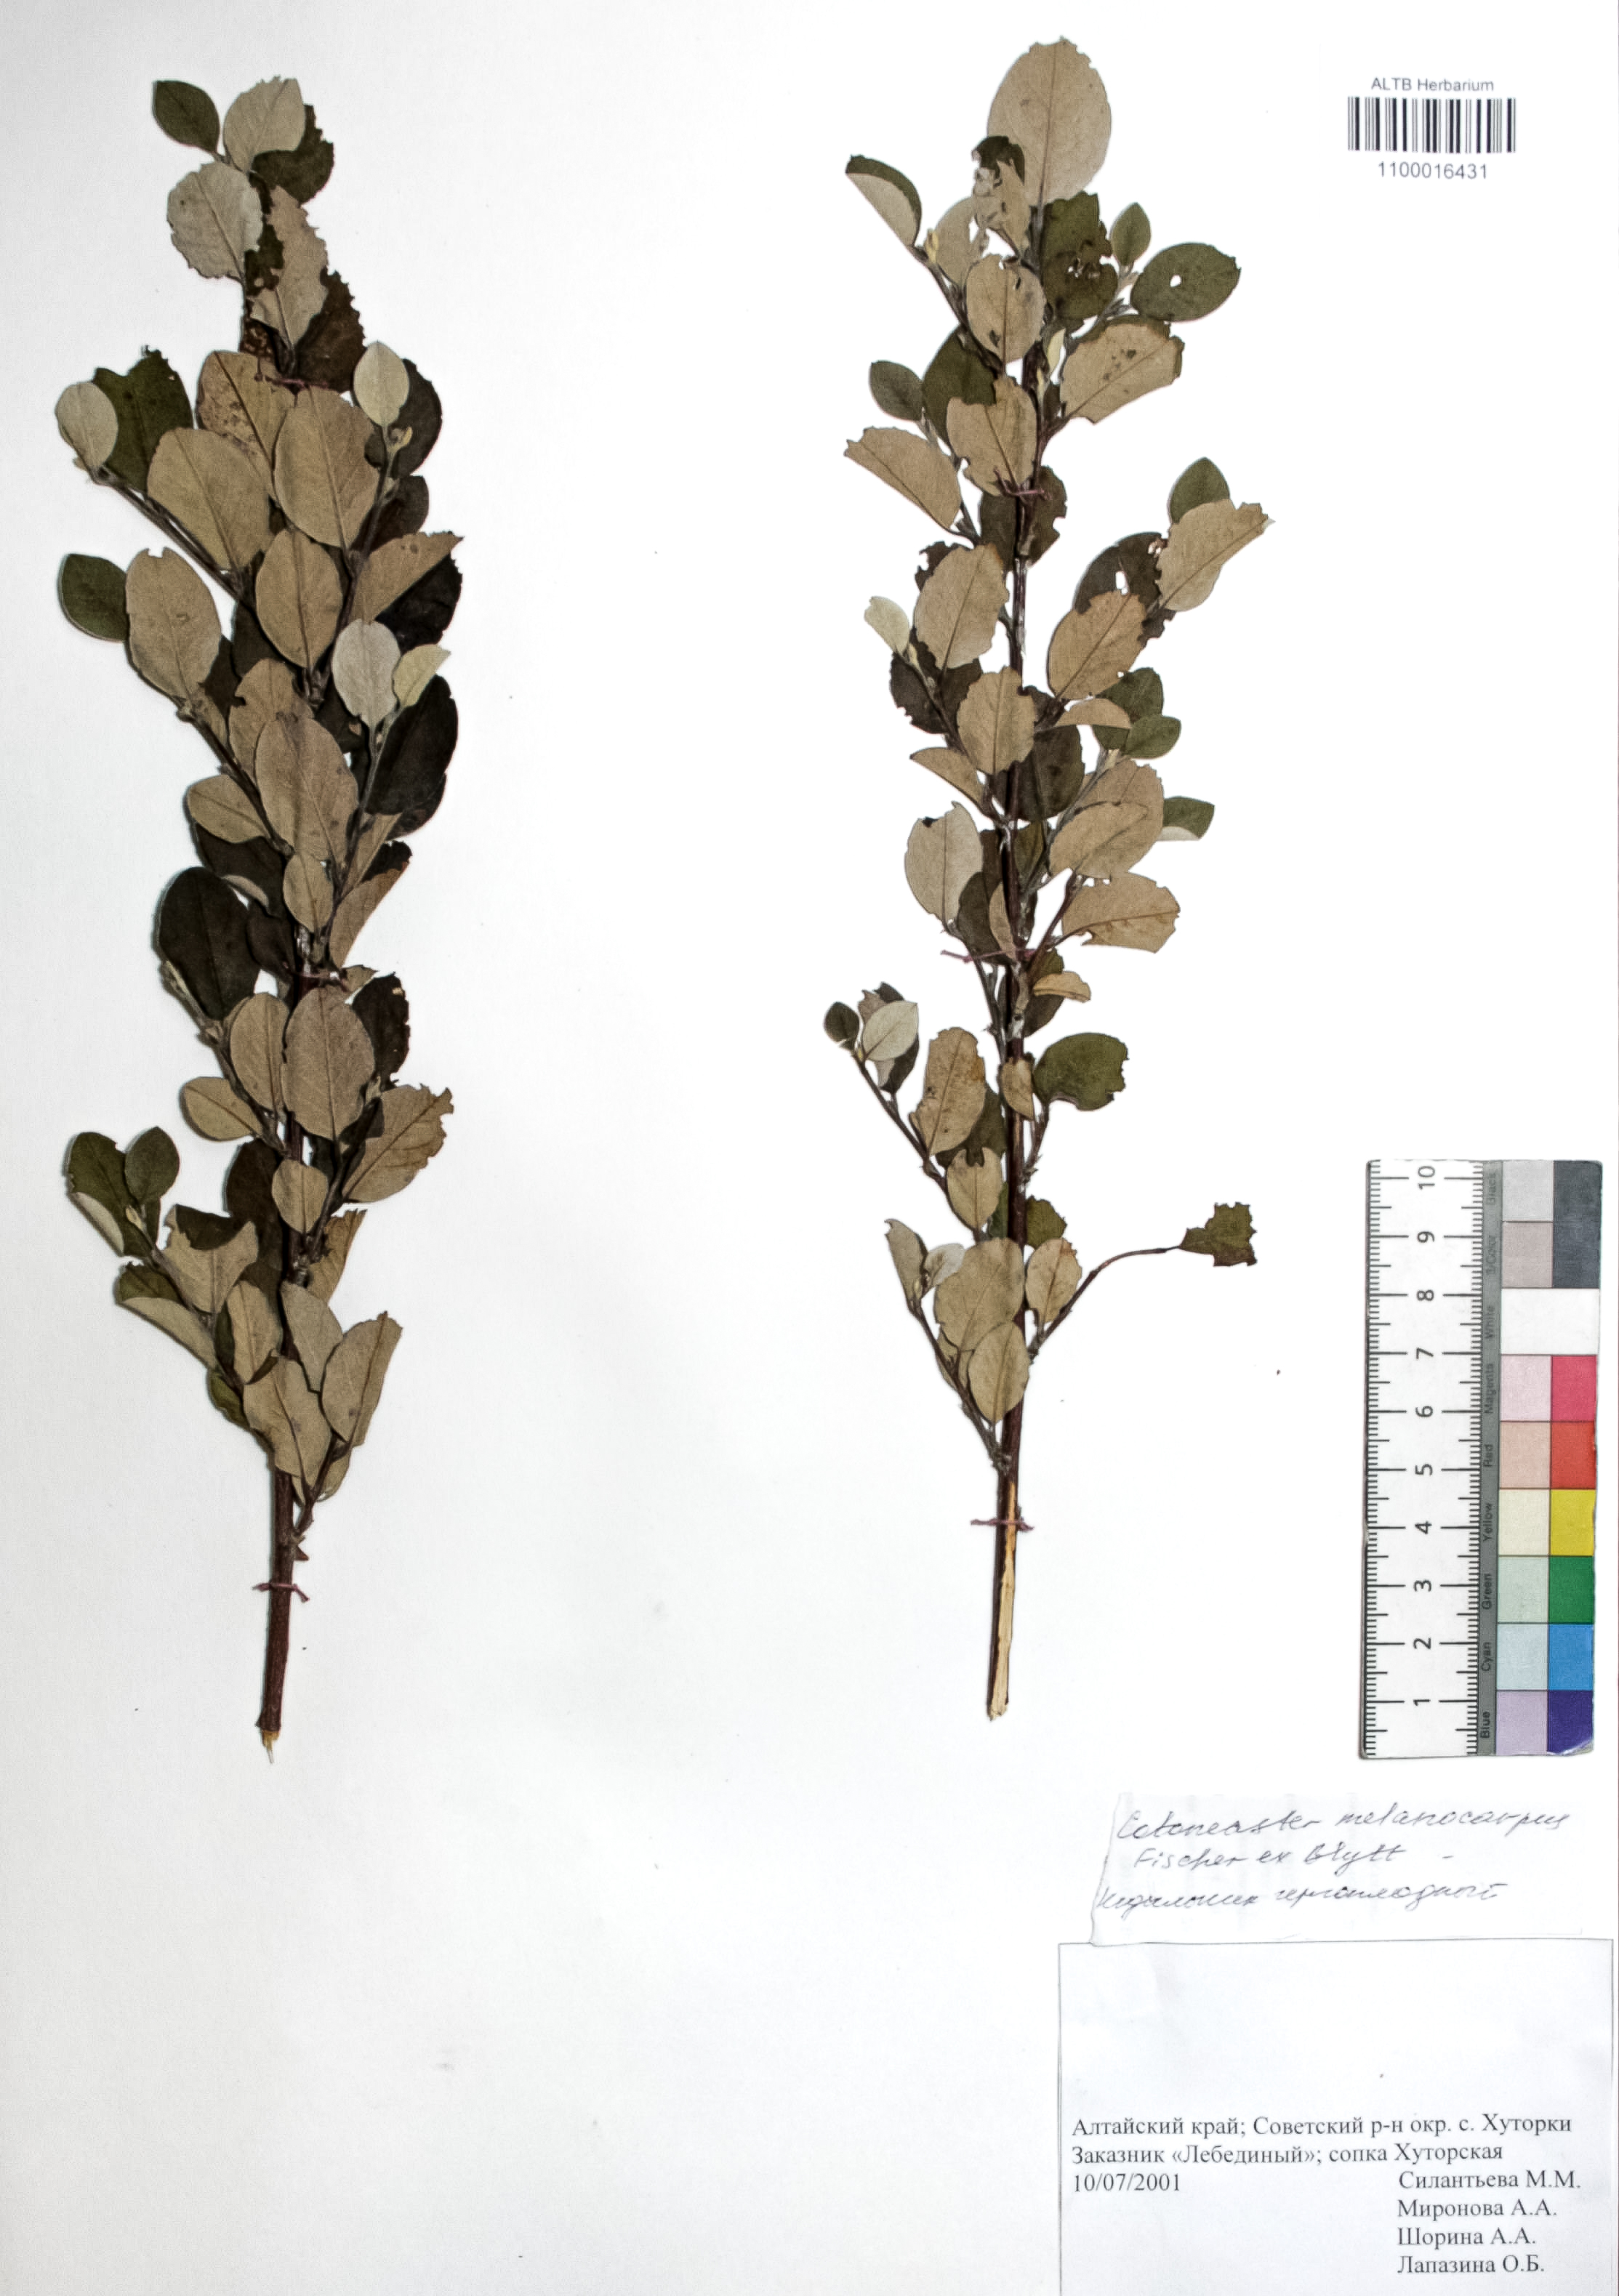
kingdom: Plantae
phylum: Tracheophyta
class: Magnoliopsida
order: Rosales
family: Rosaceae
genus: Cotoneaster
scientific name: Cotoneaster niger
